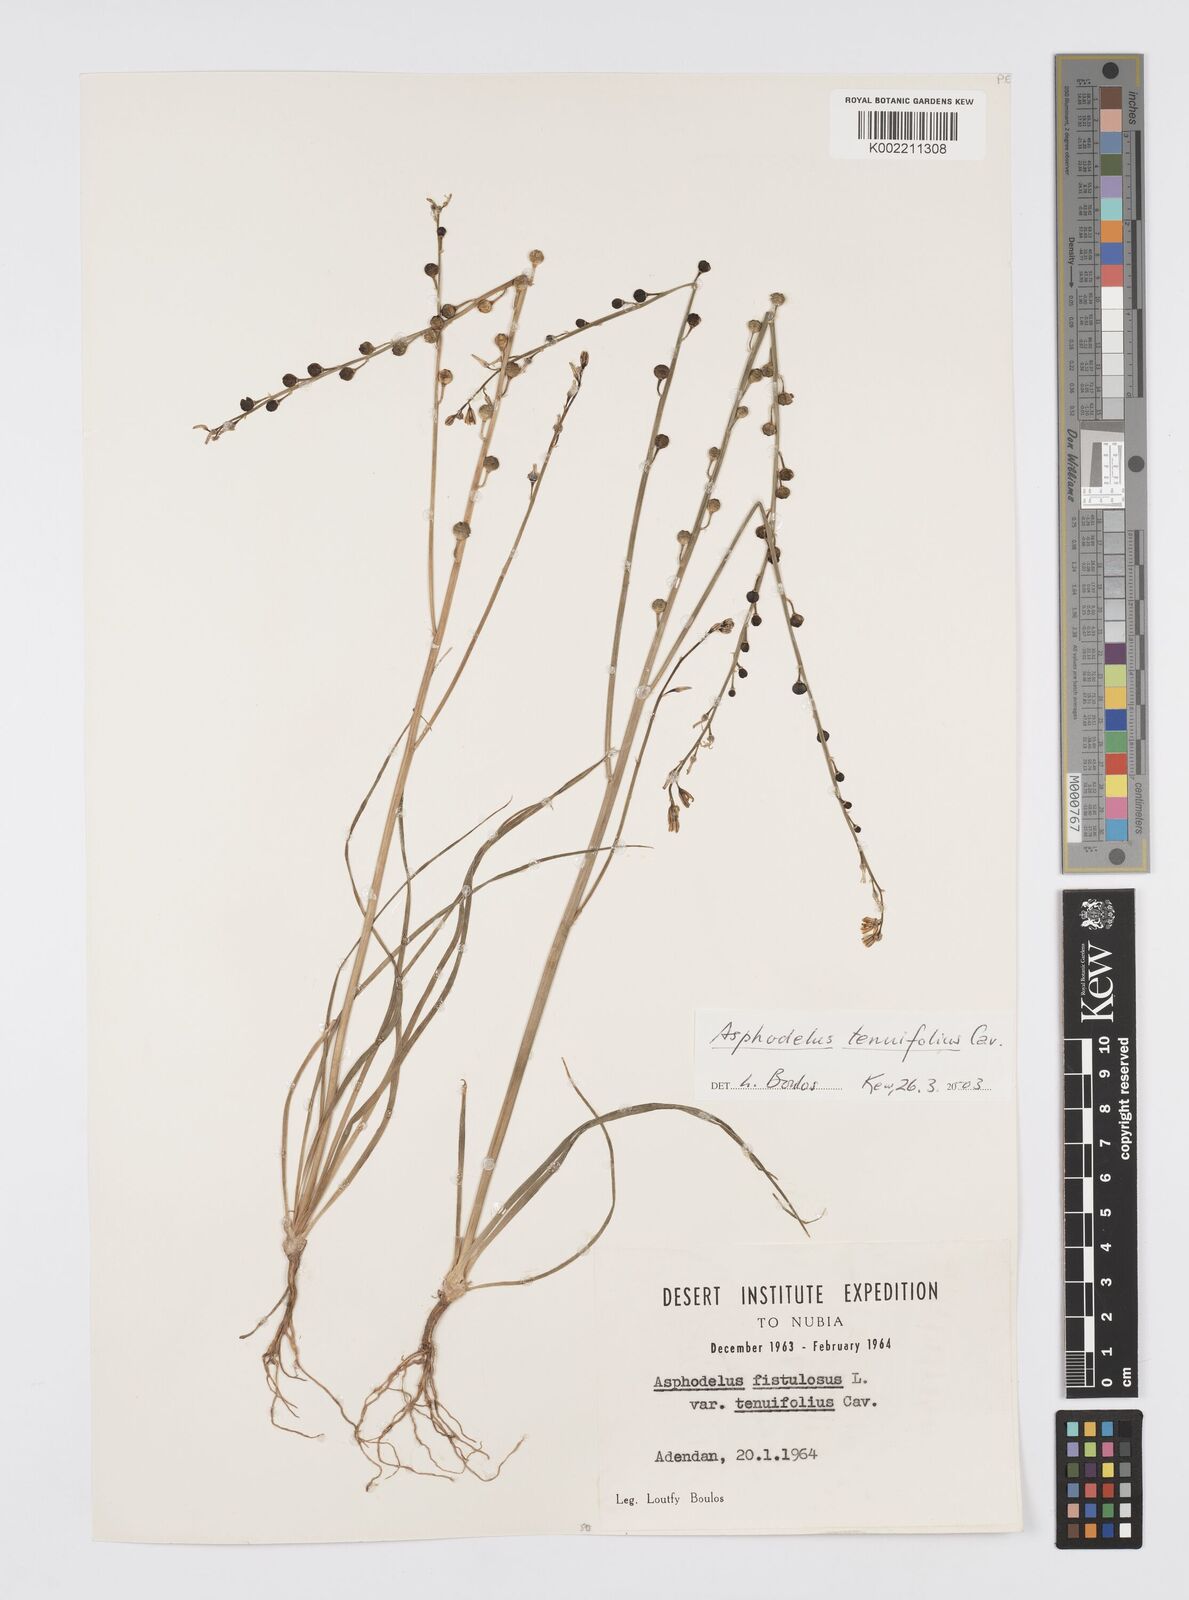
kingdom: Plantae
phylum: Tracheophyta
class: Liliopsida
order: Asparagales
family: Asphodelaceae
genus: Asphodeline
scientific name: Asphodeline tenuior
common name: Thin asphodeline
